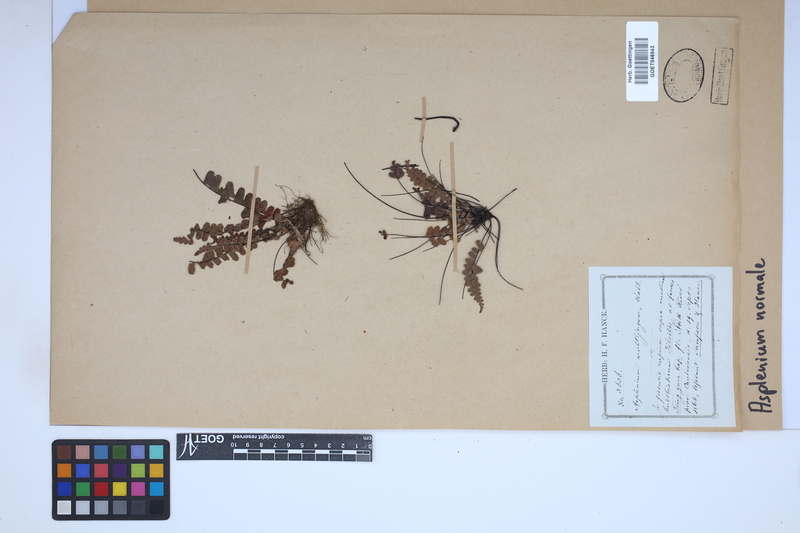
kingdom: Plantae
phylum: Tracheophyta
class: Polypodiopsida
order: Polypodiales
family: Aspleniaceae
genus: Asplenium
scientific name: Asplenium normale
